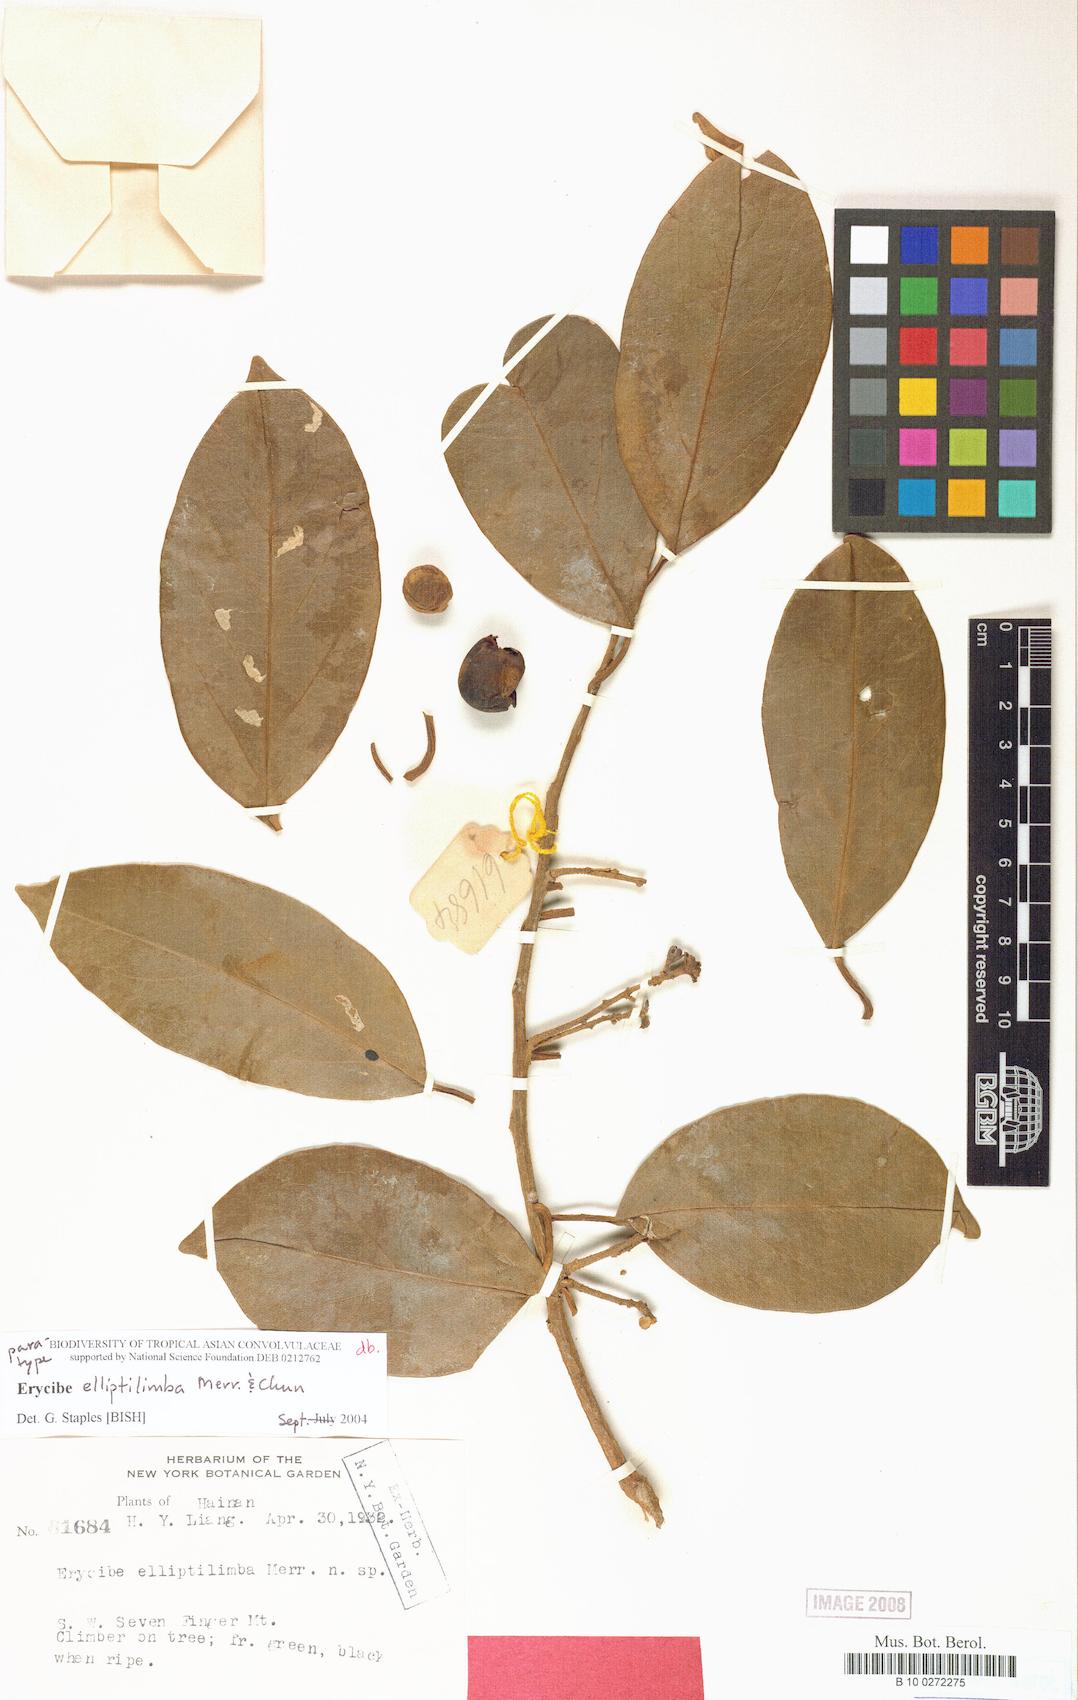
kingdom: Plantae
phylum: Tracheophyta
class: Magnoliopsida
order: Solanales
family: Convolvulaceae
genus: Erycibe
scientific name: Erycibe elliptilimba
